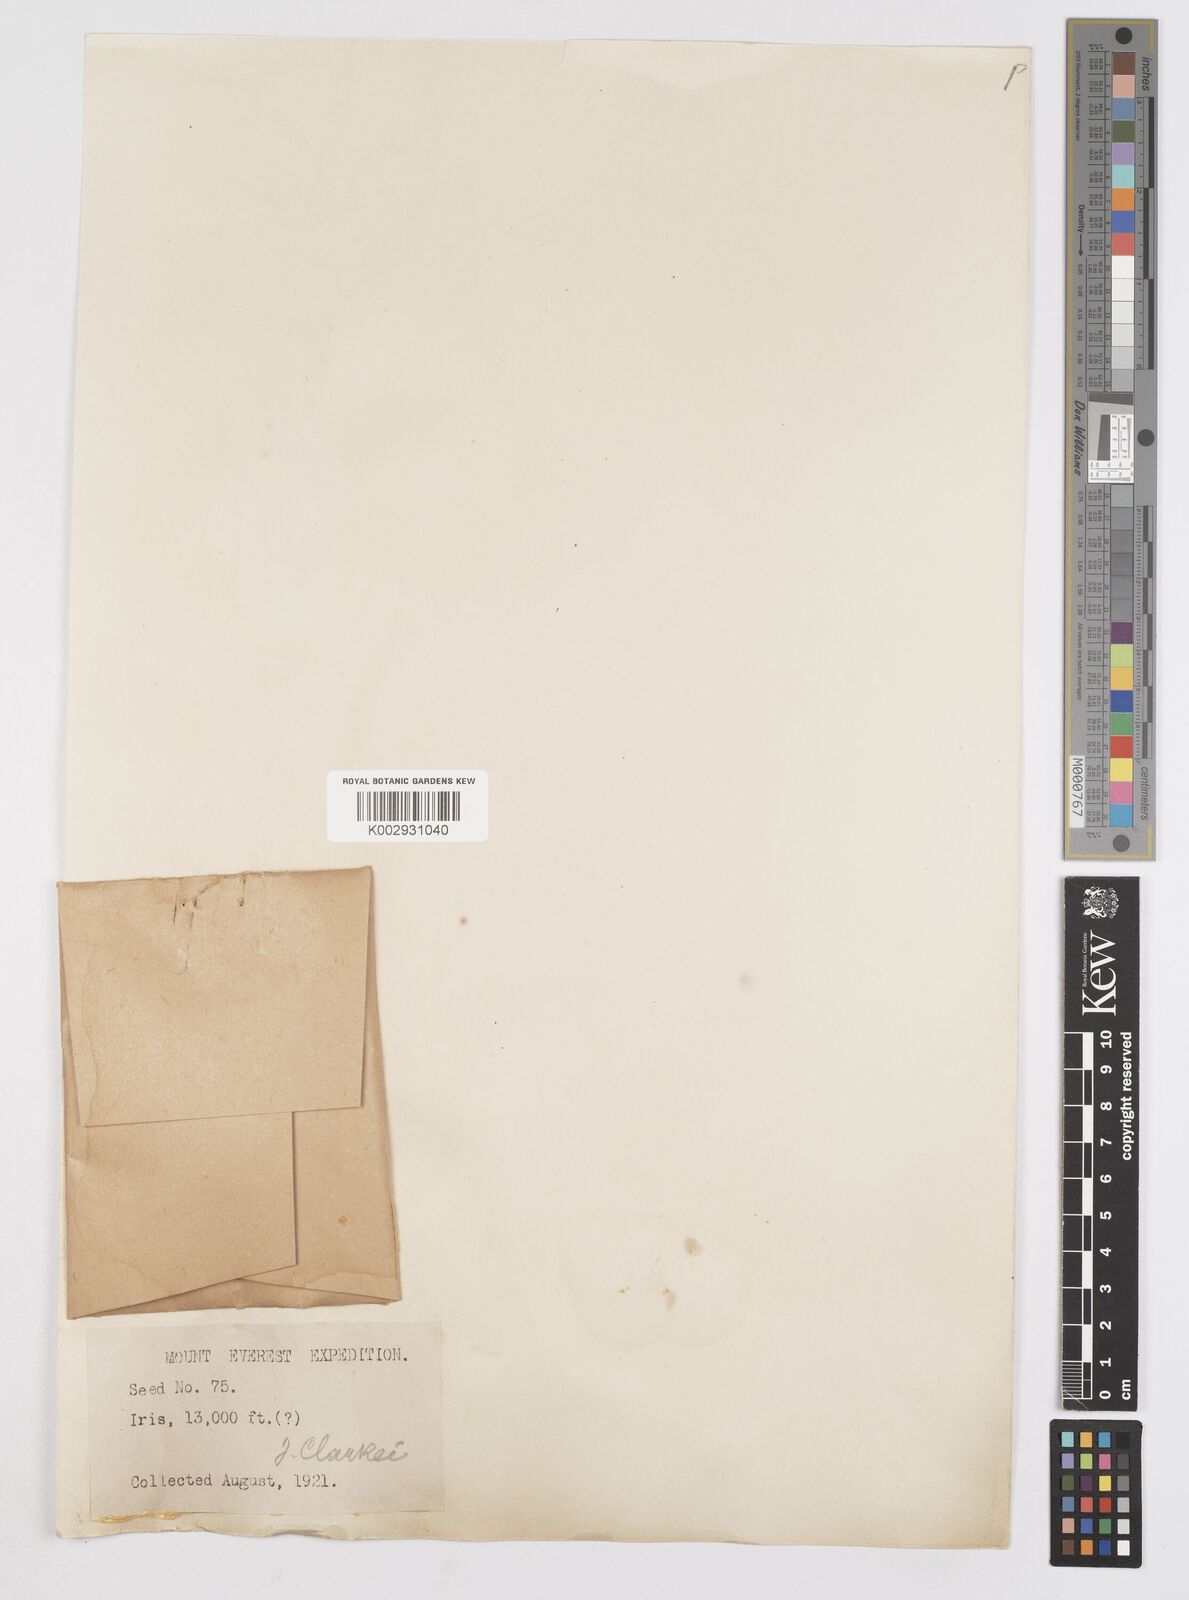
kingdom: Plantae
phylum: Tracheophyta
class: Liliopsida
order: Asparagales
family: Iridaceae
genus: Iris
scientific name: Iris clarkei
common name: Tibet iris
